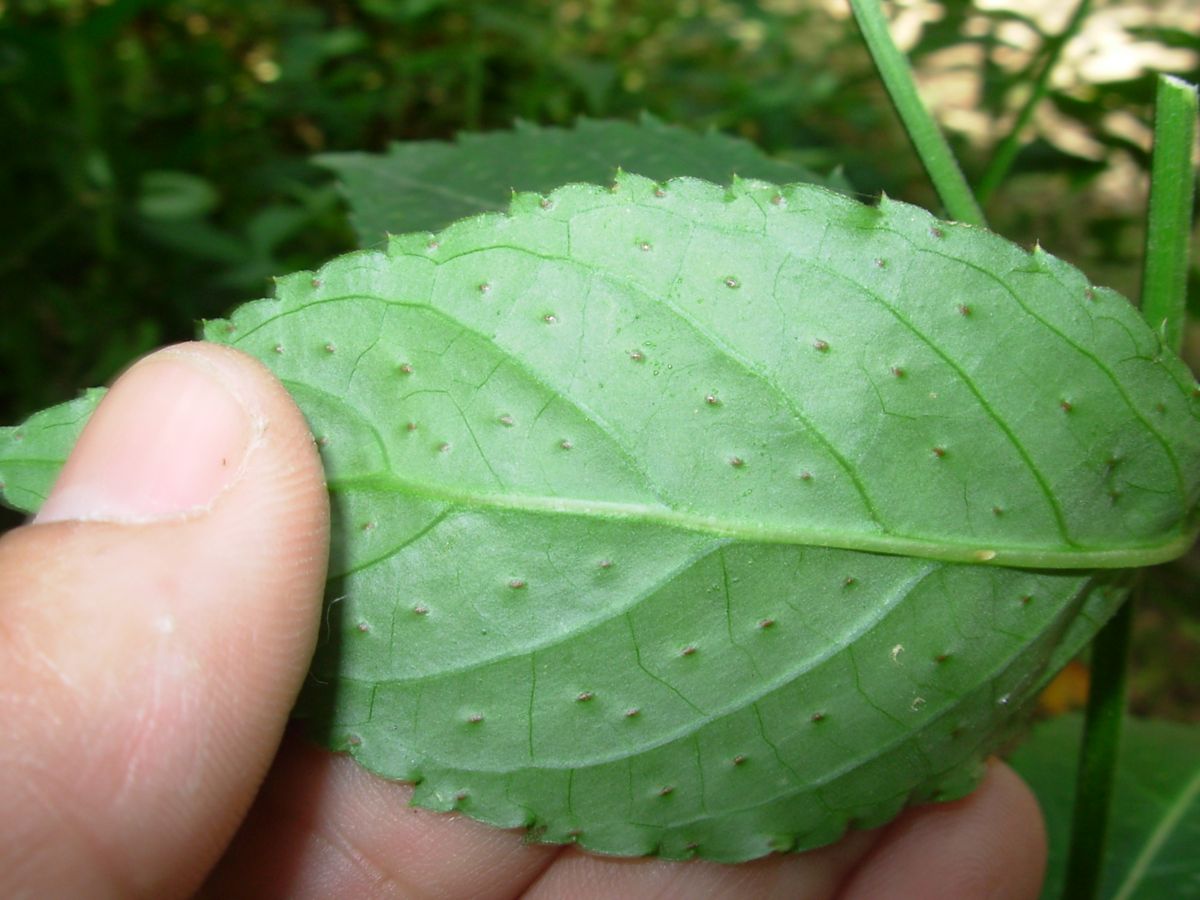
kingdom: Plantae
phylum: Tracheophyta
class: Magnoliopsida
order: Asterales
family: Asteraceae
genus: Comaclinium
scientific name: Comaclinium montanum
